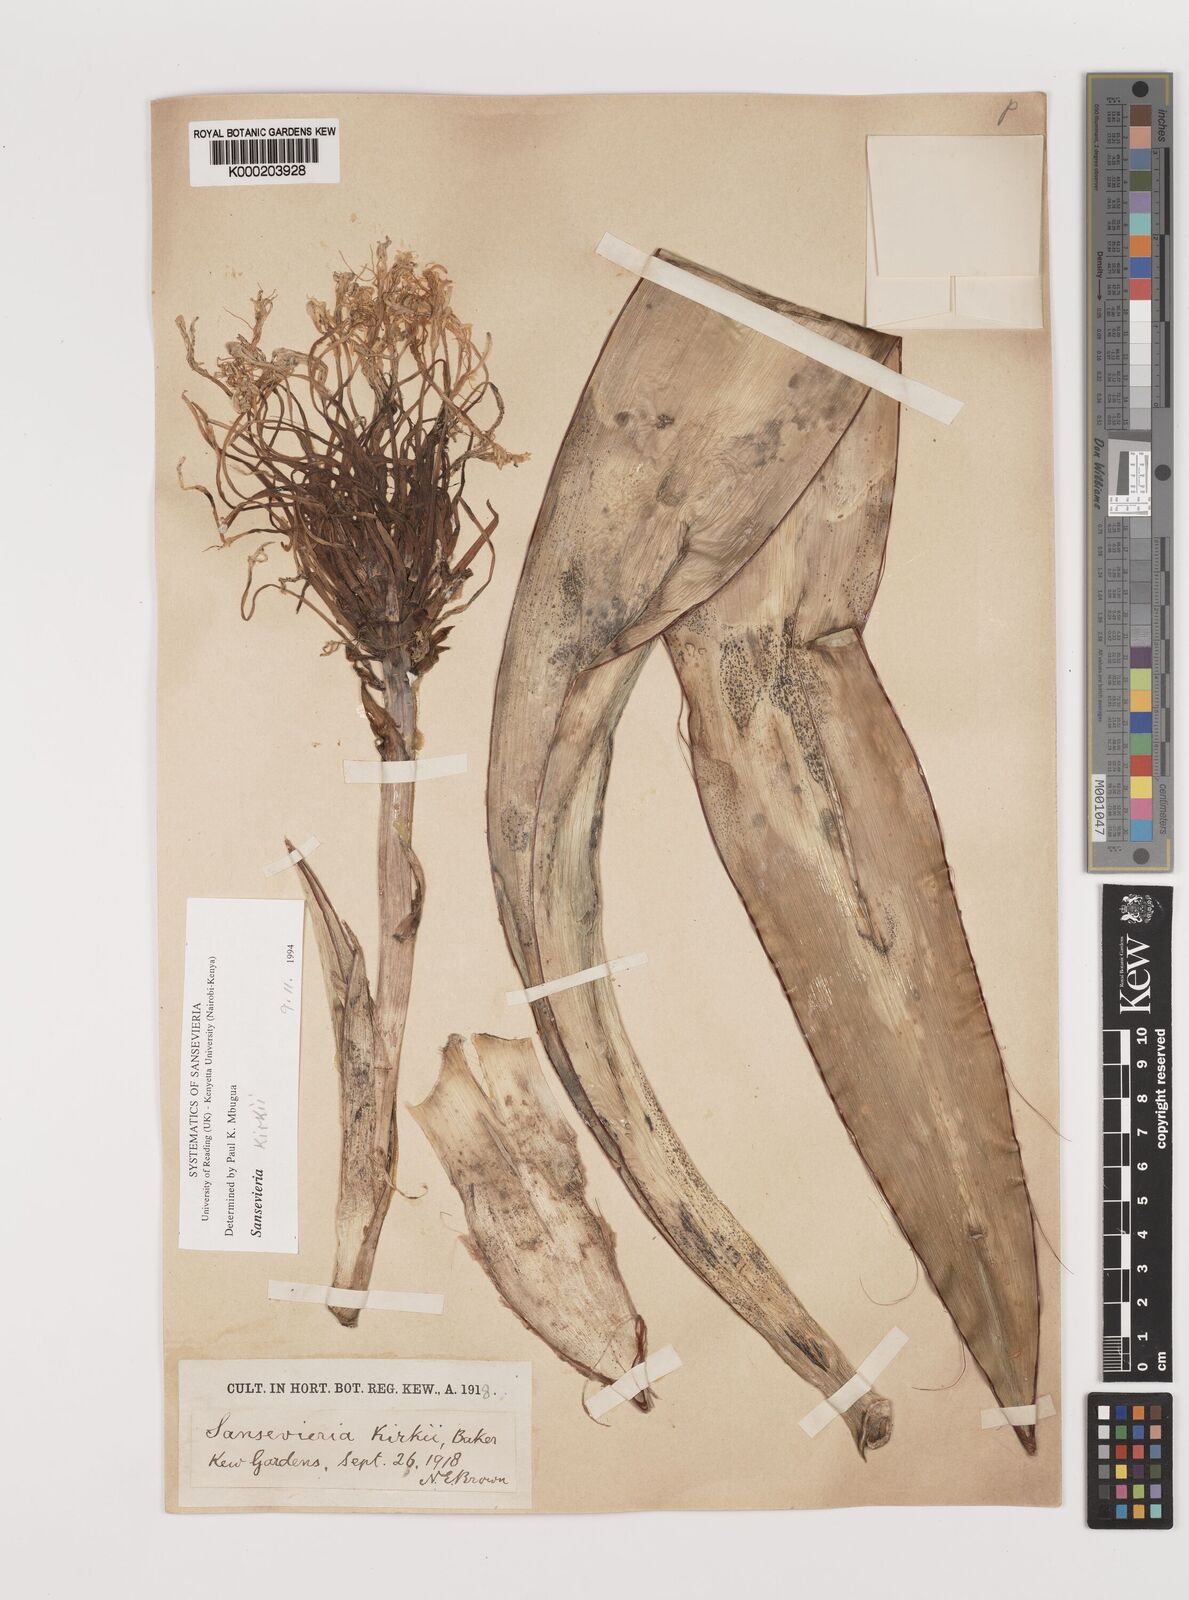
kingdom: Plantae
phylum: Tracheophyta
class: Liliopsida
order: Asparagales
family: Asparagaceae
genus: Dracaena
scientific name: Dracaena pethera
